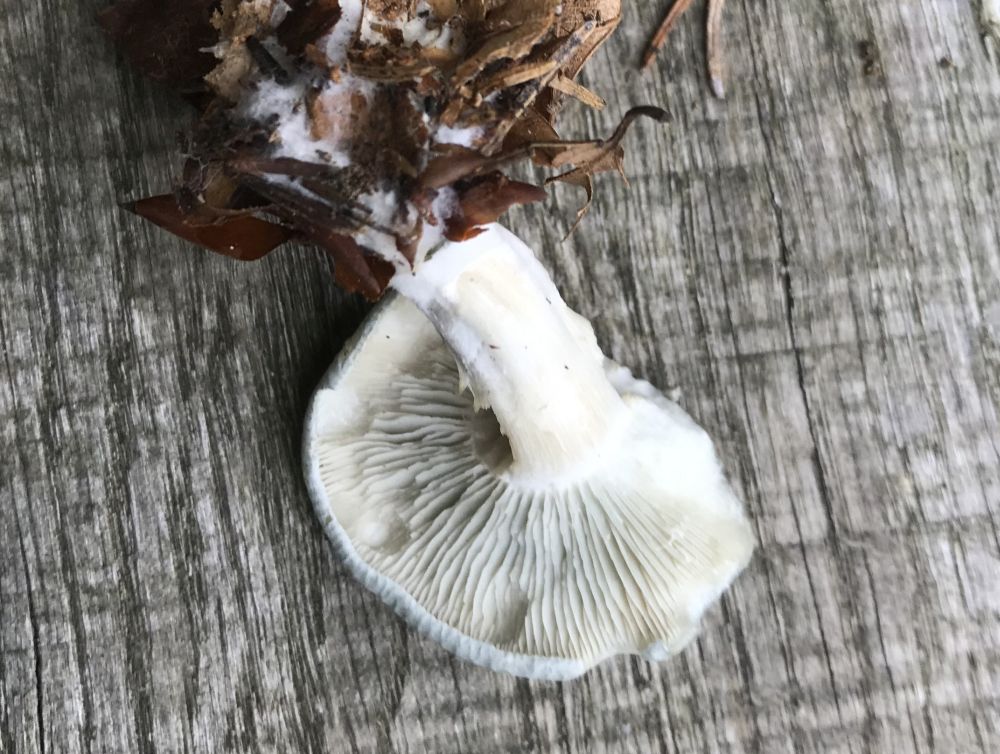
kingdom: Fungi
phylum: Basidiomycota
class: Agaricomycetes
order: Agaricales
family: Tricholomataceae
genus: Clitocybe
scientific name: Clitocybe odora
